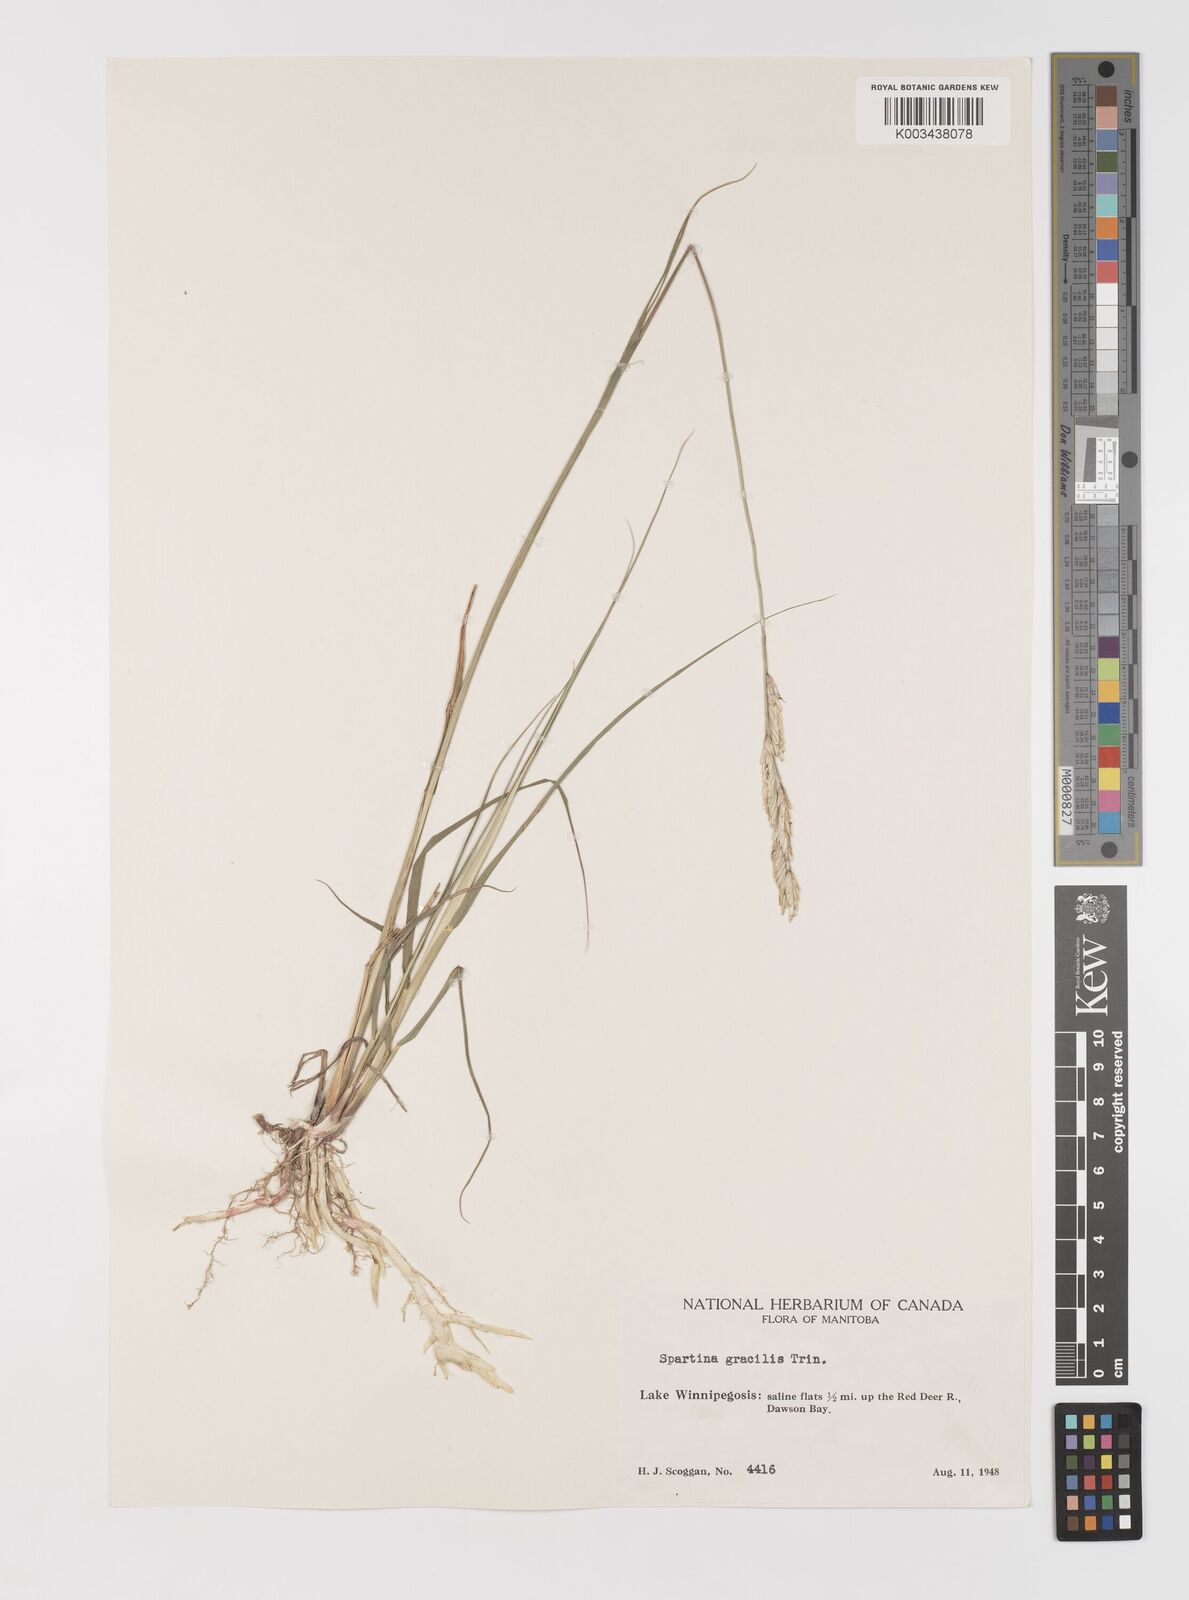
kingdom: Plantae
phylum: Tracheophyta
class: Liliopsida
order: Poales
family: Poaceae
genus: Sporobolus
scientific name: Sporobolus hookerianus
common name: Alkali cordgrass
